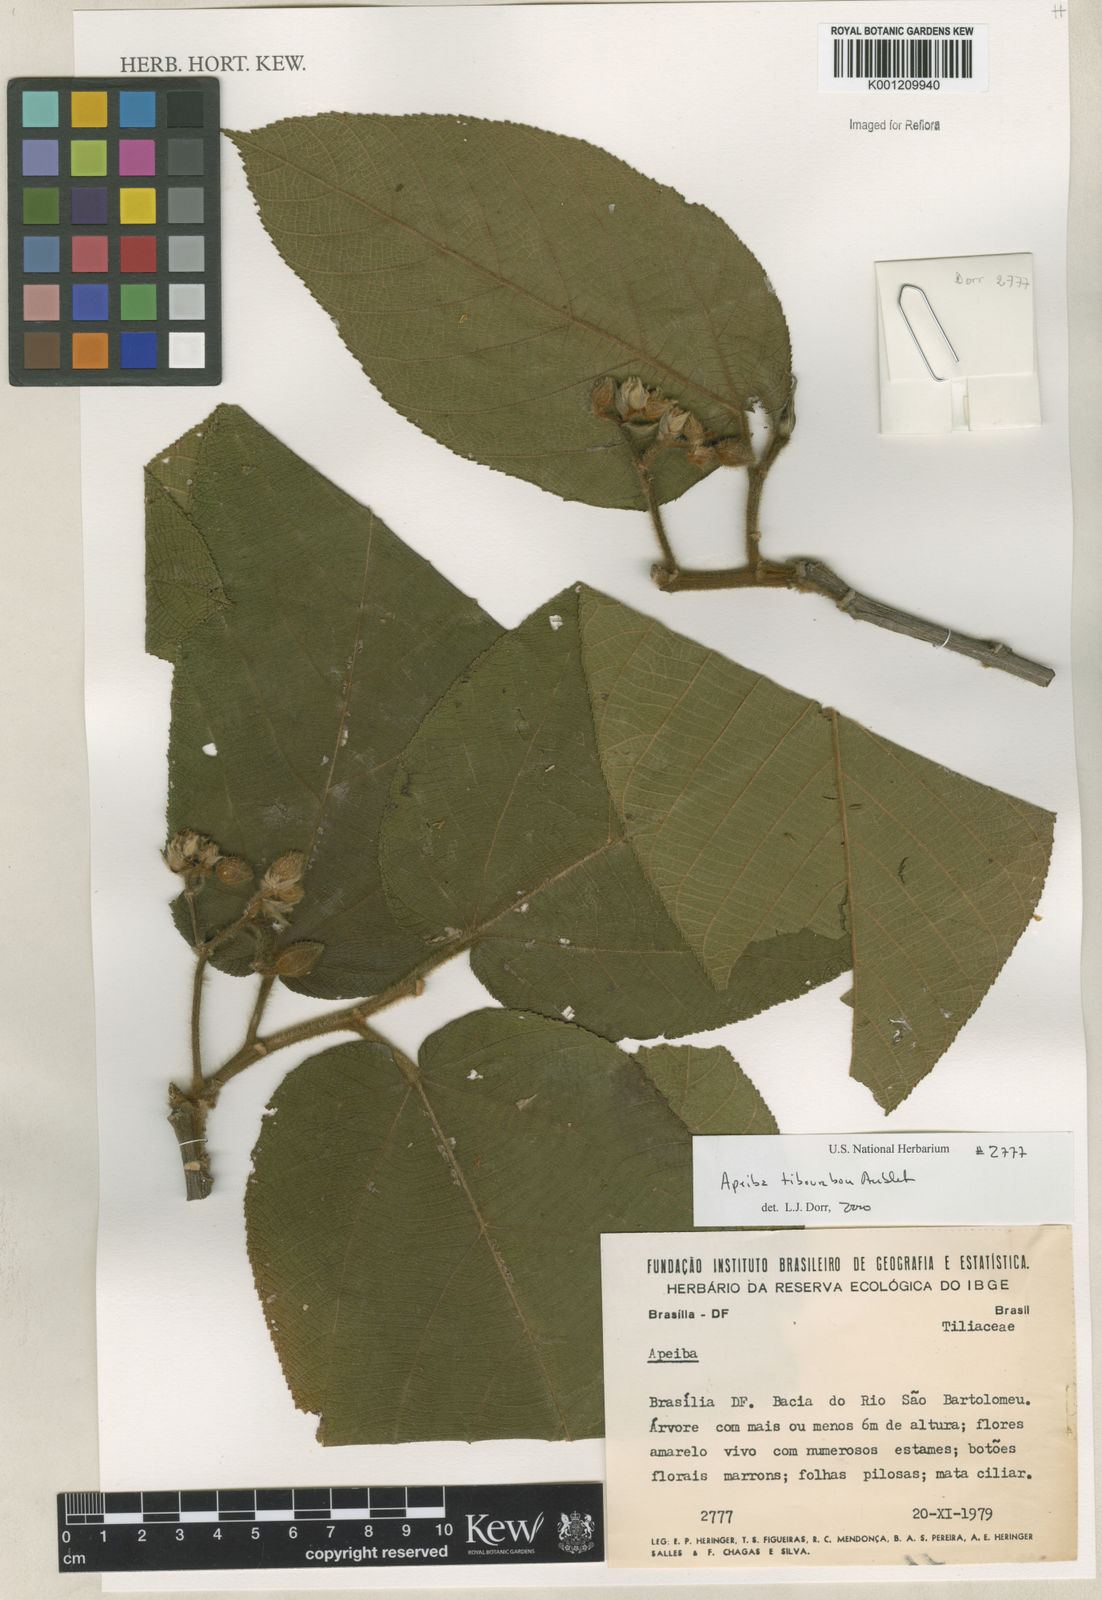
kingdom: Plantae
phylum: Tracheophyta
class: Magnoliopsida
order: Malvales
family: Malvaceae
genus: Apeiba
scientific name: Apeiba tibourbou
